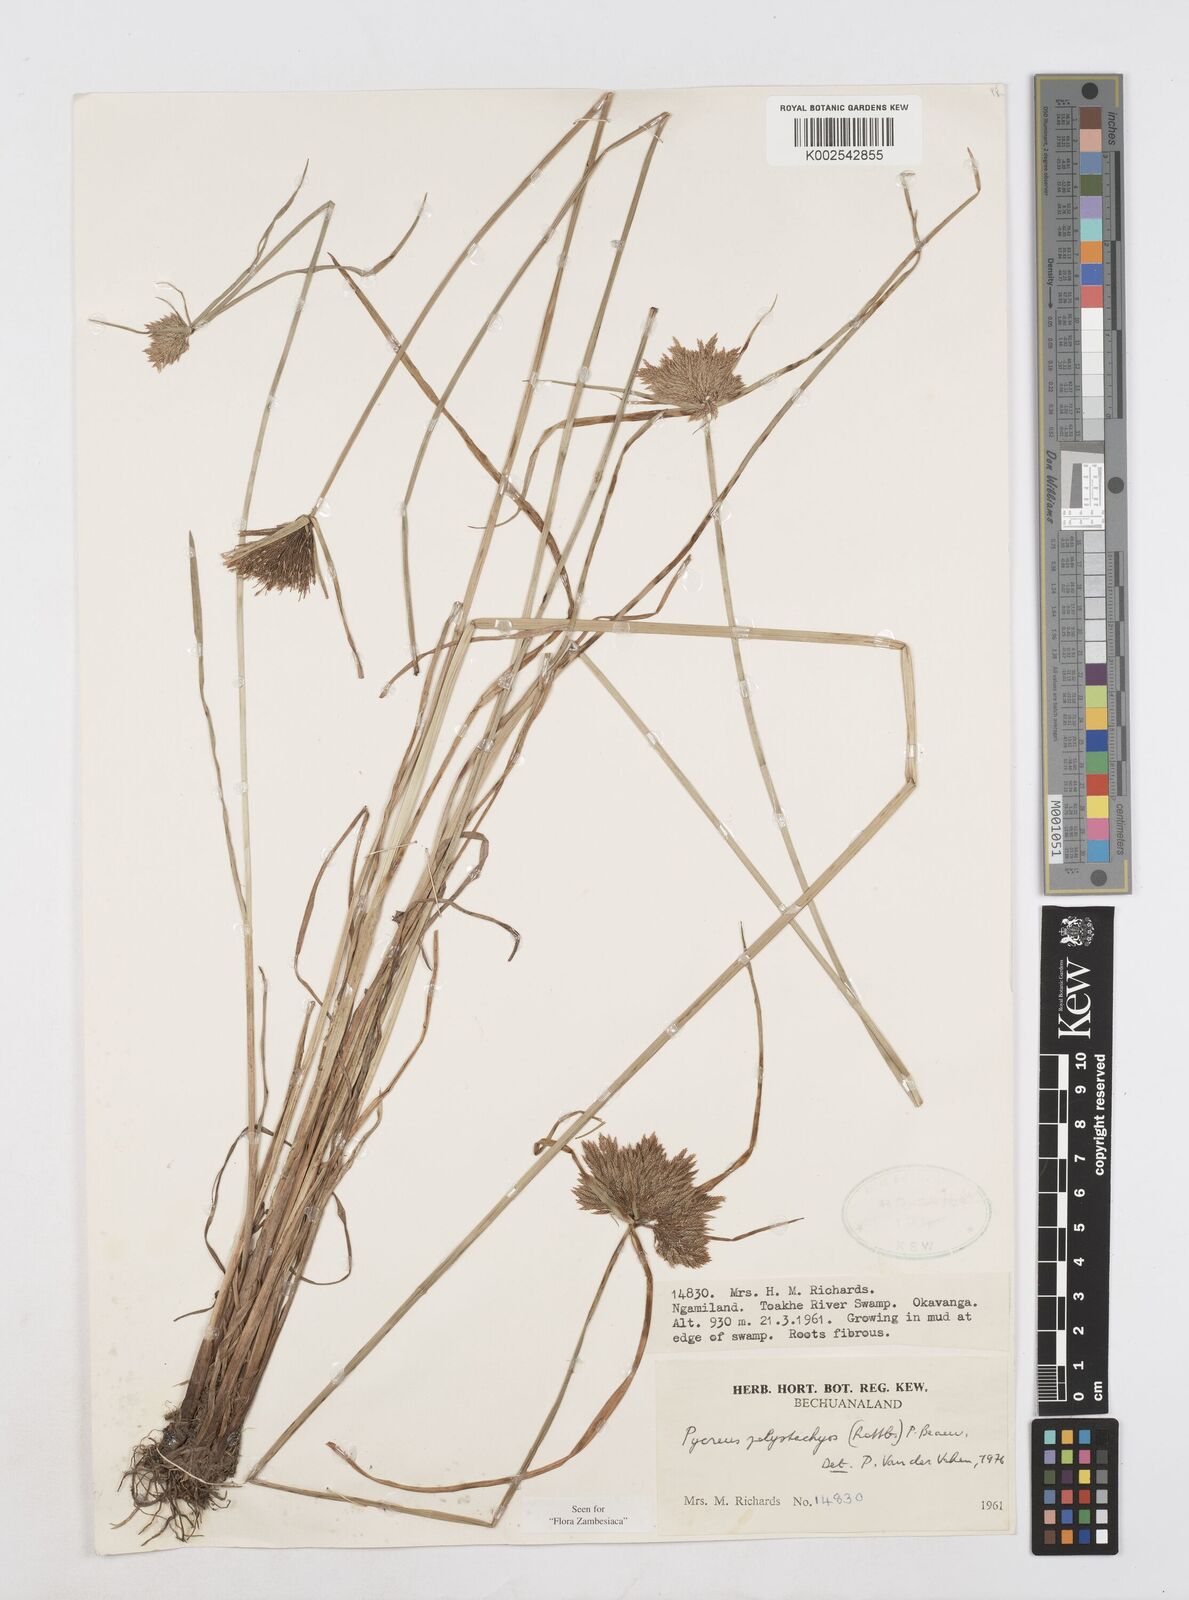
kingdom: Plantae
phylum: Tracheophyta
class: Liliopsida
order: Poales
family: Cyperaceae
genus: Cyperus
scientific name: Cyperus polystachyos
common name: Bunchy flat sedge
